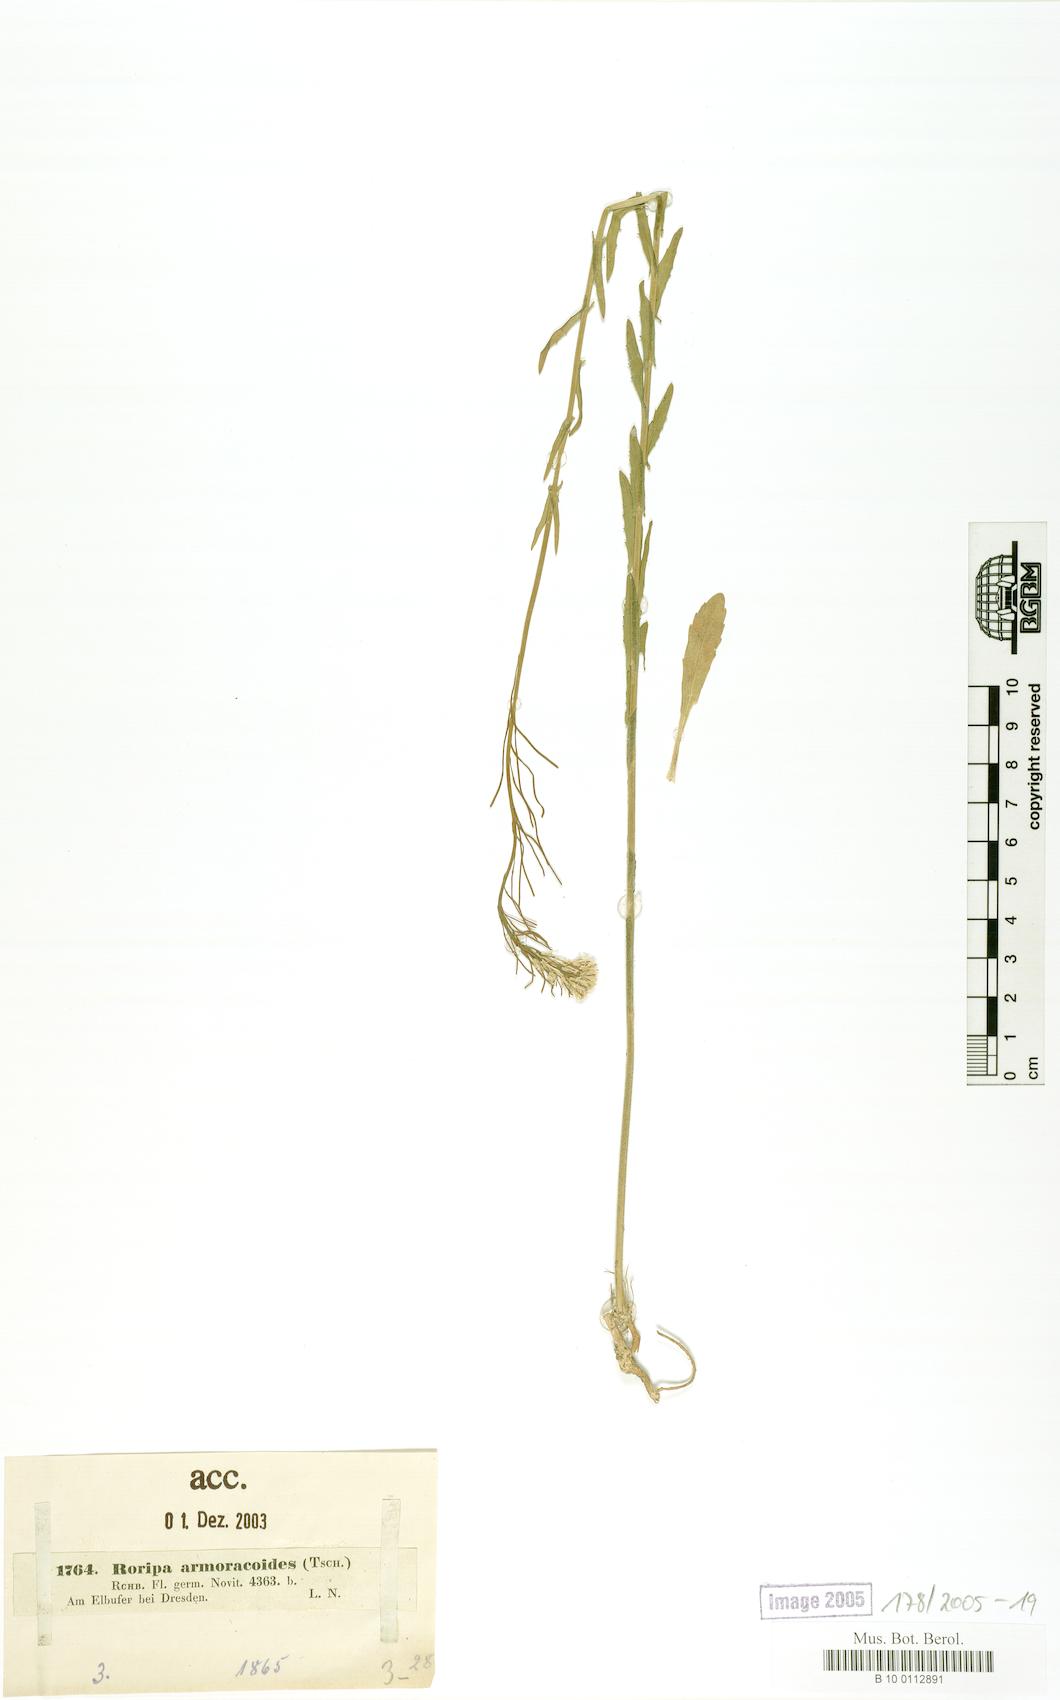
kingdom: Plantae
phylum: Tracheophyta
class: Magnoliopsida
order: Brassicales
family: Brassicaceae
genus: Rorippa
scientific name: Rorippa anceps
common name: Rorippa
